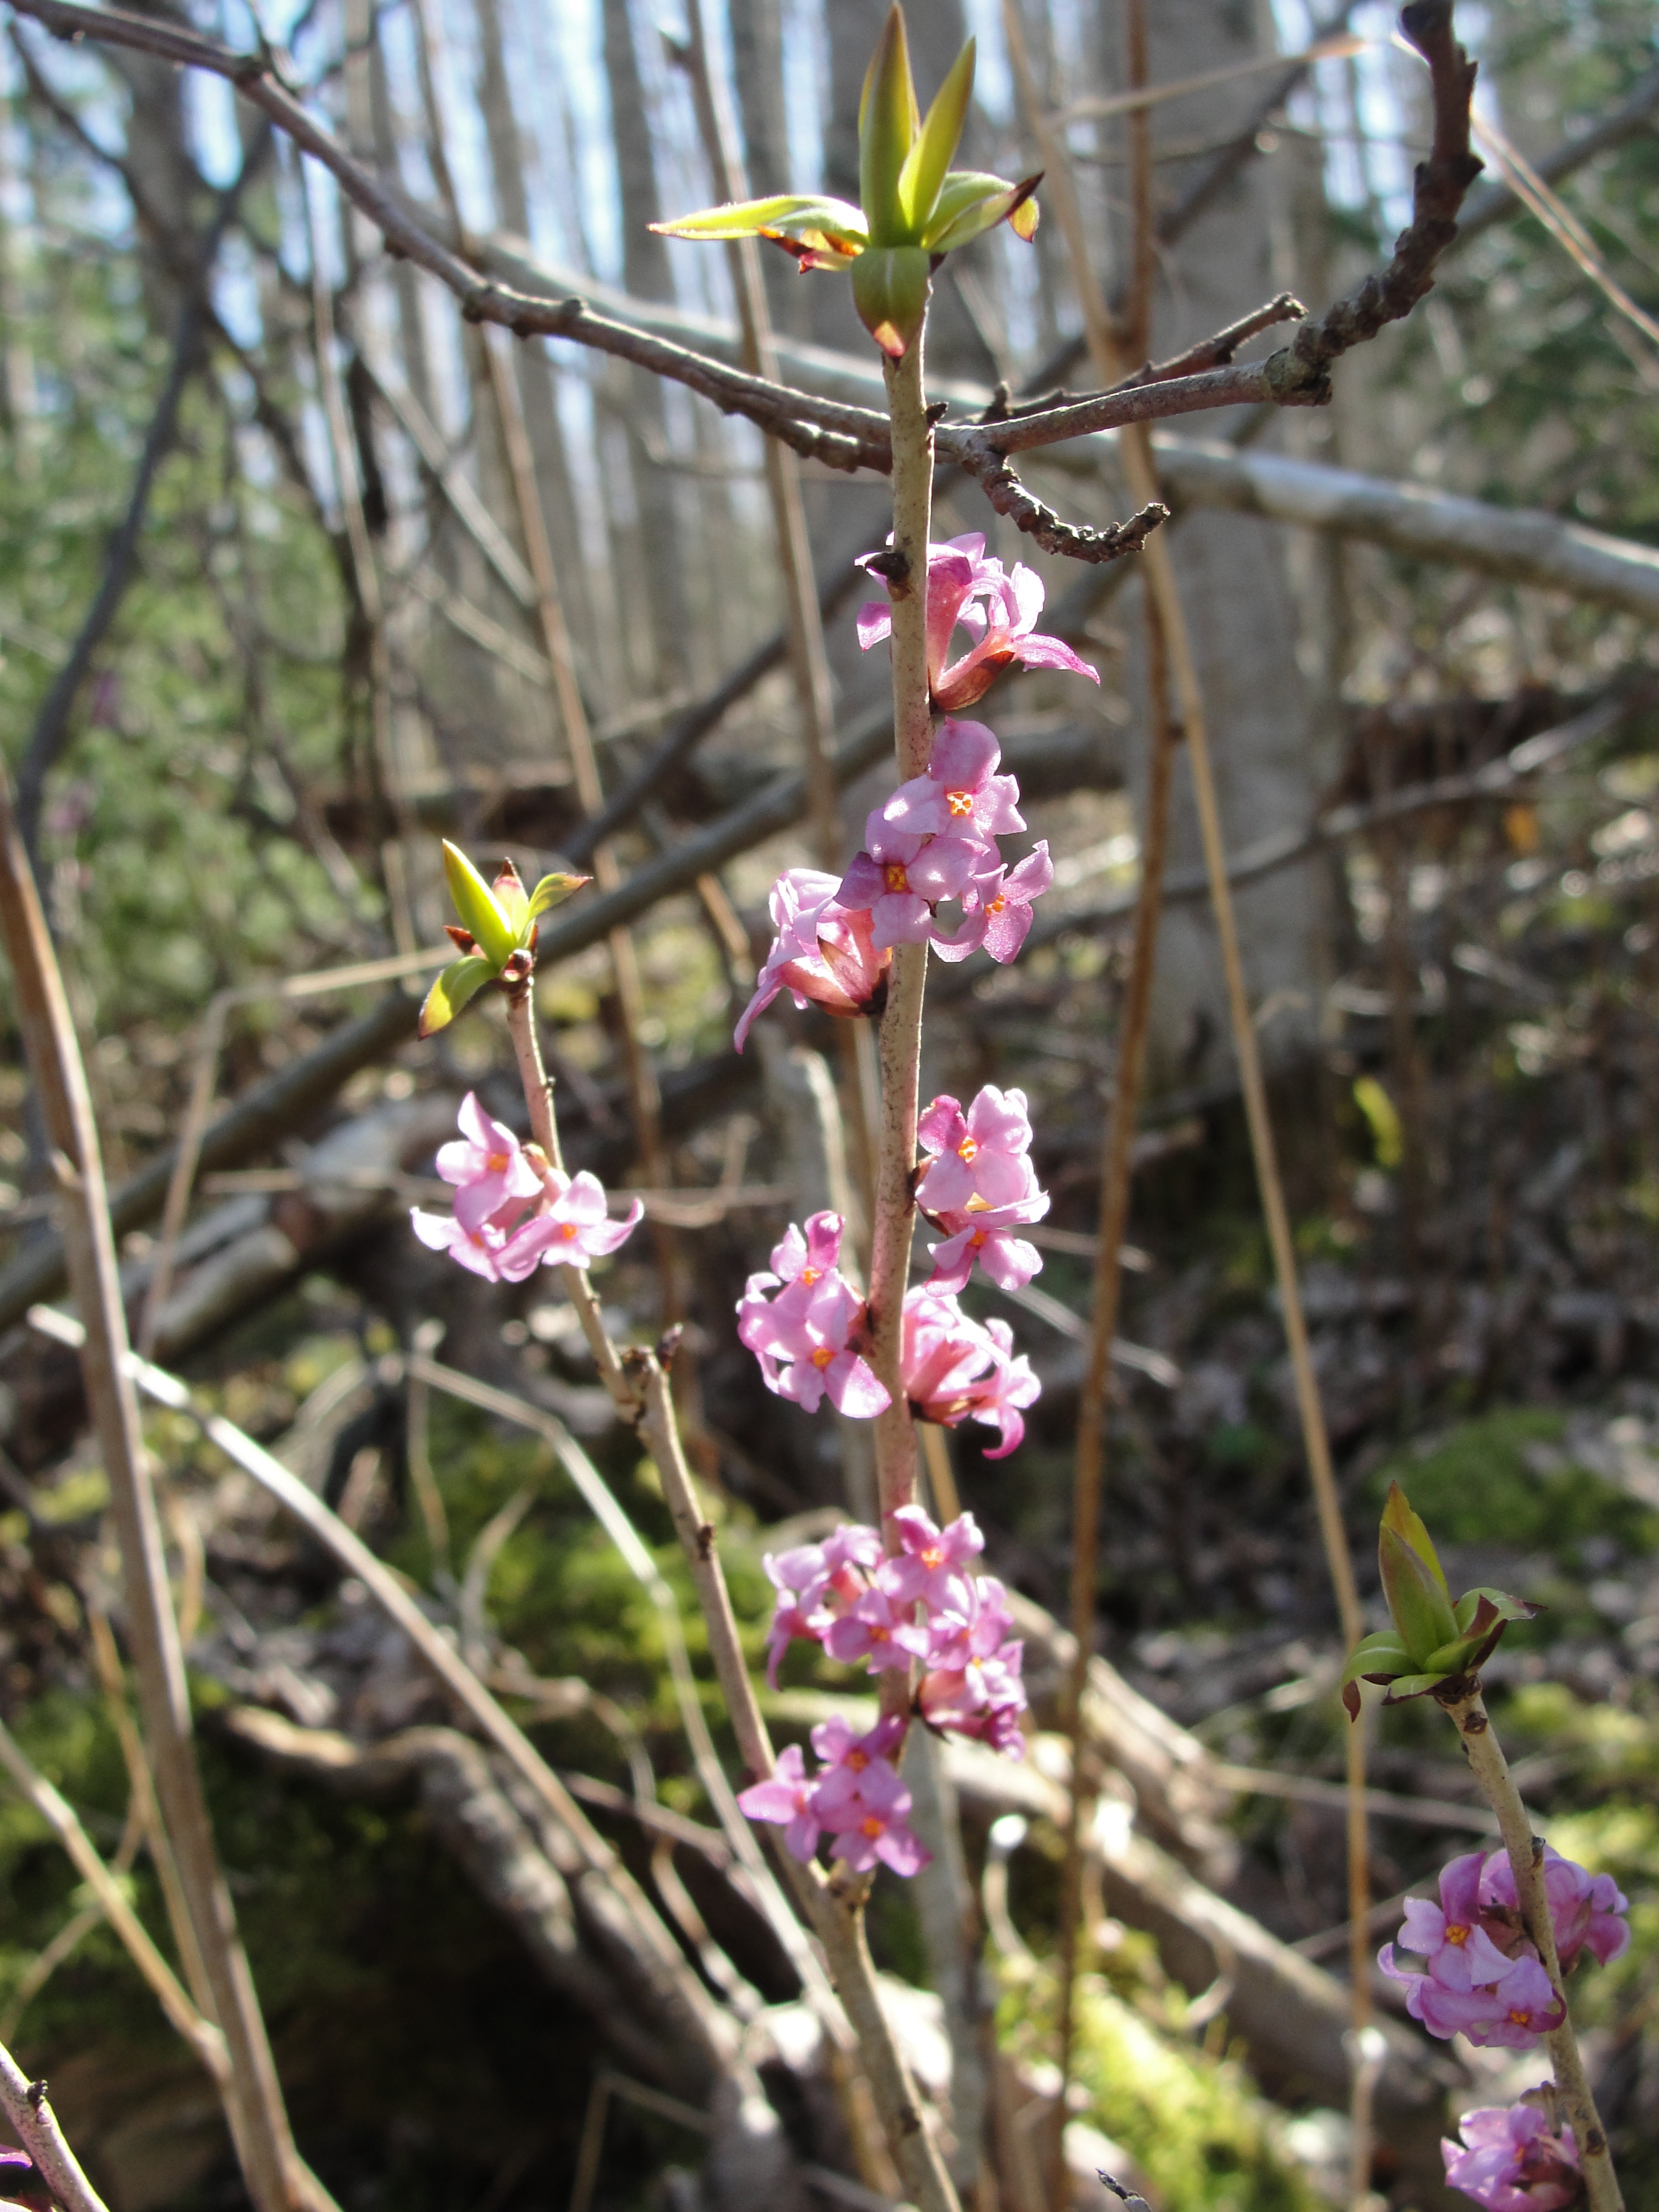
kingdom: Plantae
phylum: Tracheophyta
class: Magnoliopsida
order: Malvales
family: Thymelaeaceae
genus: Daphne
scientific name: Daphne mezereum
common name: Mezereon
